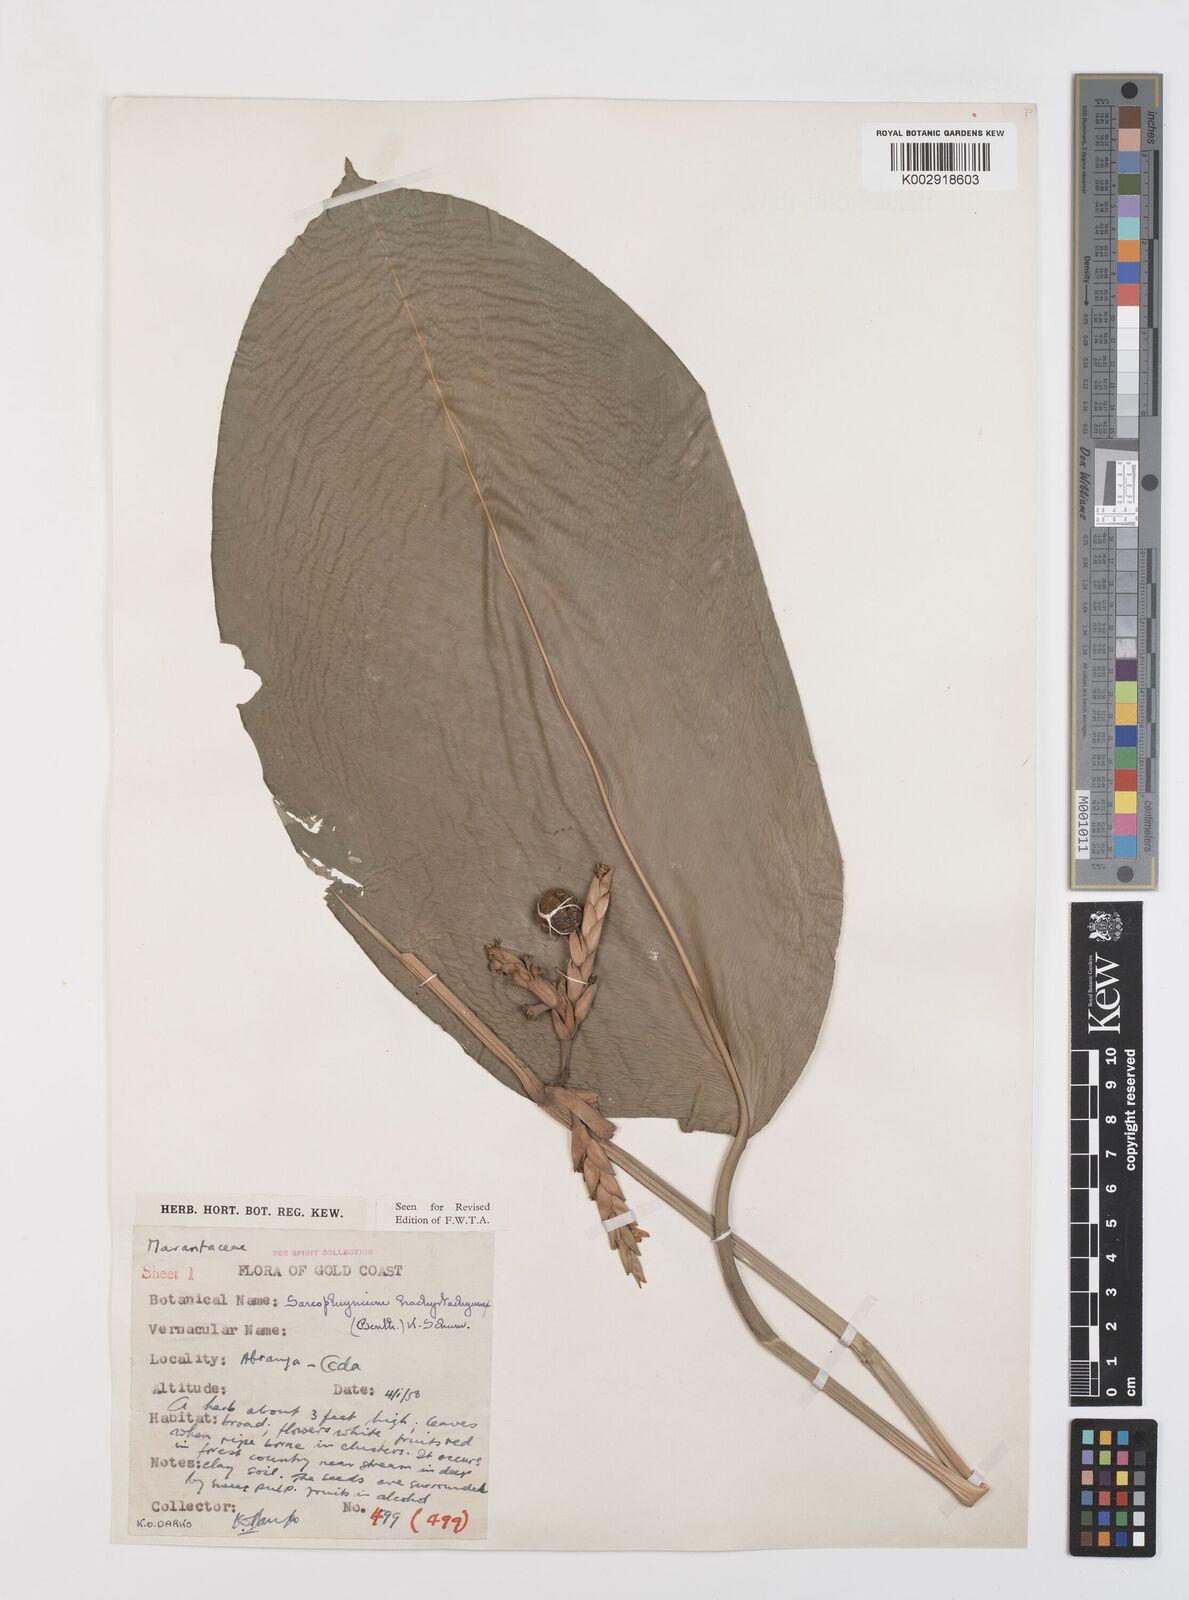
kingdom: Plantae
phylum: Tracheophyta
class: Liliopsida
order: Zingiberales
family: Marantaceae
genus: Sarcophrynium
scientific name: Sarcophrynium brachystachyum
